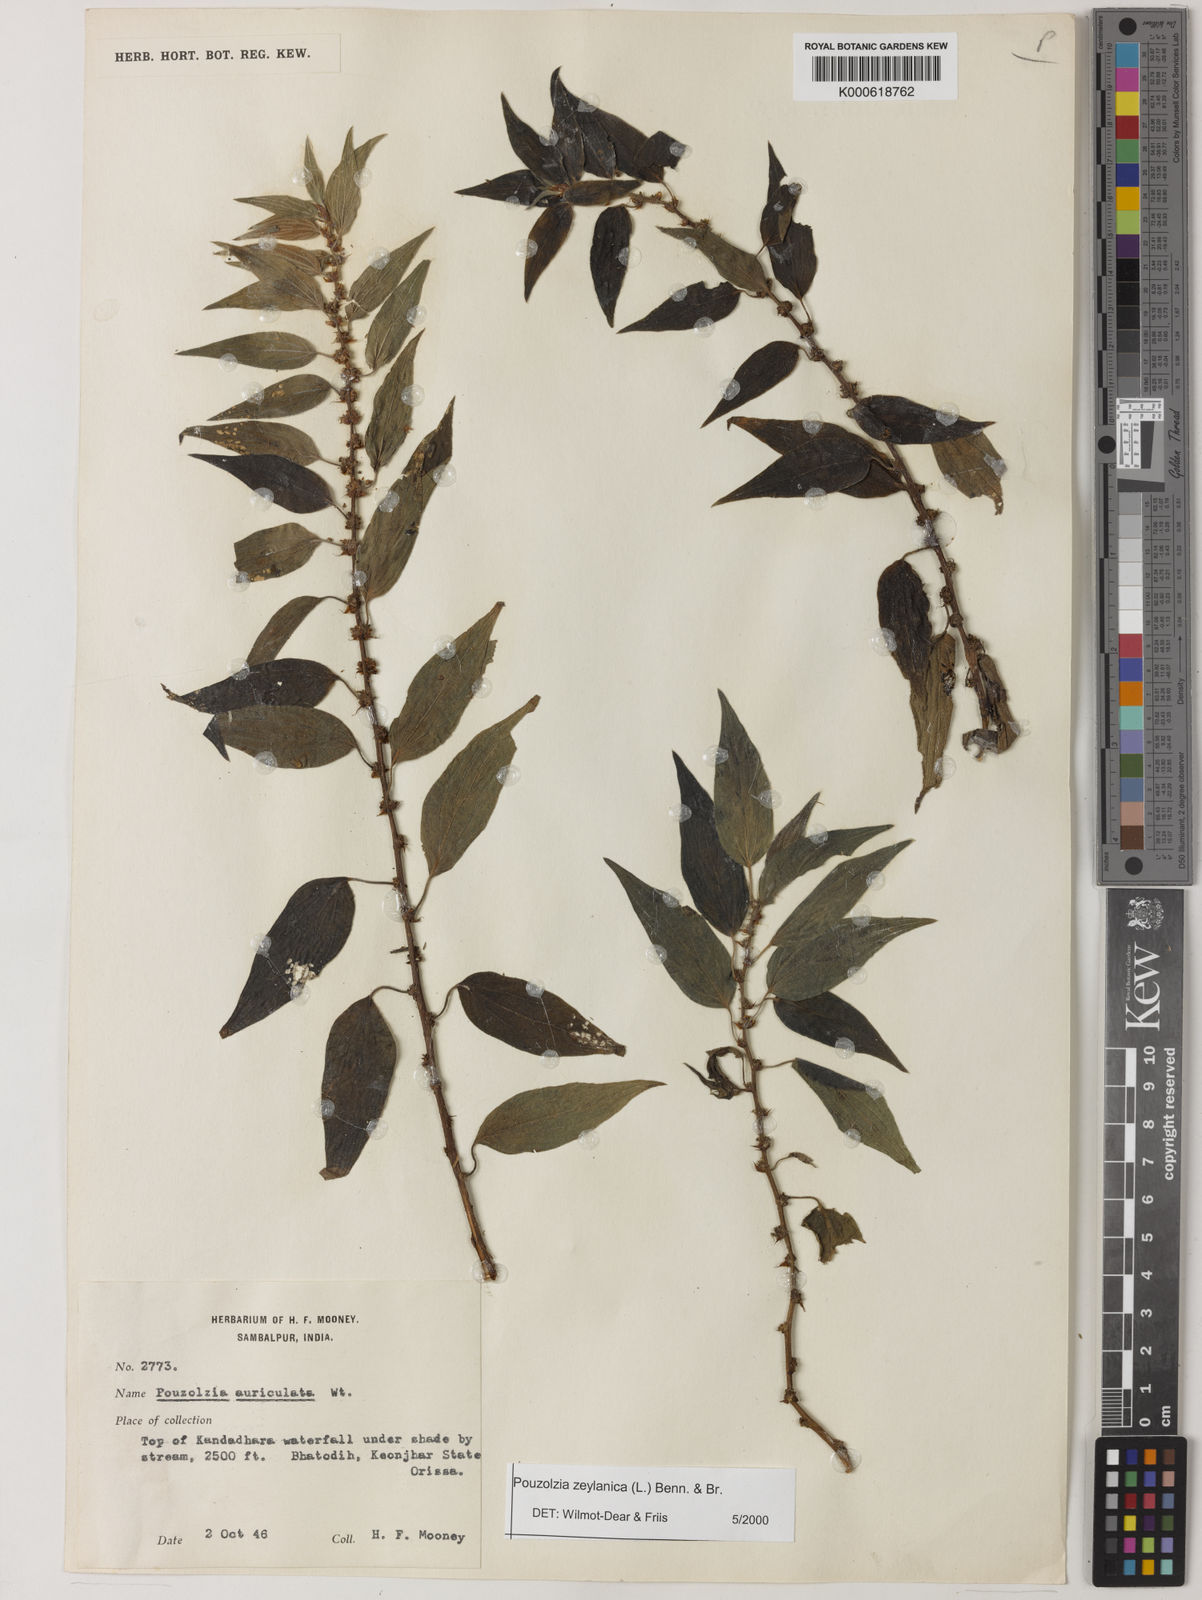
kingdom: Plantae
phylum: Tracheophyta
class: Magnoliopsida
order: Rosales
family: Urticaceae
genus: Pouzolzia
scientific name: Pouzolzia zeylanica
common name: Graceful pouzolzsbush
